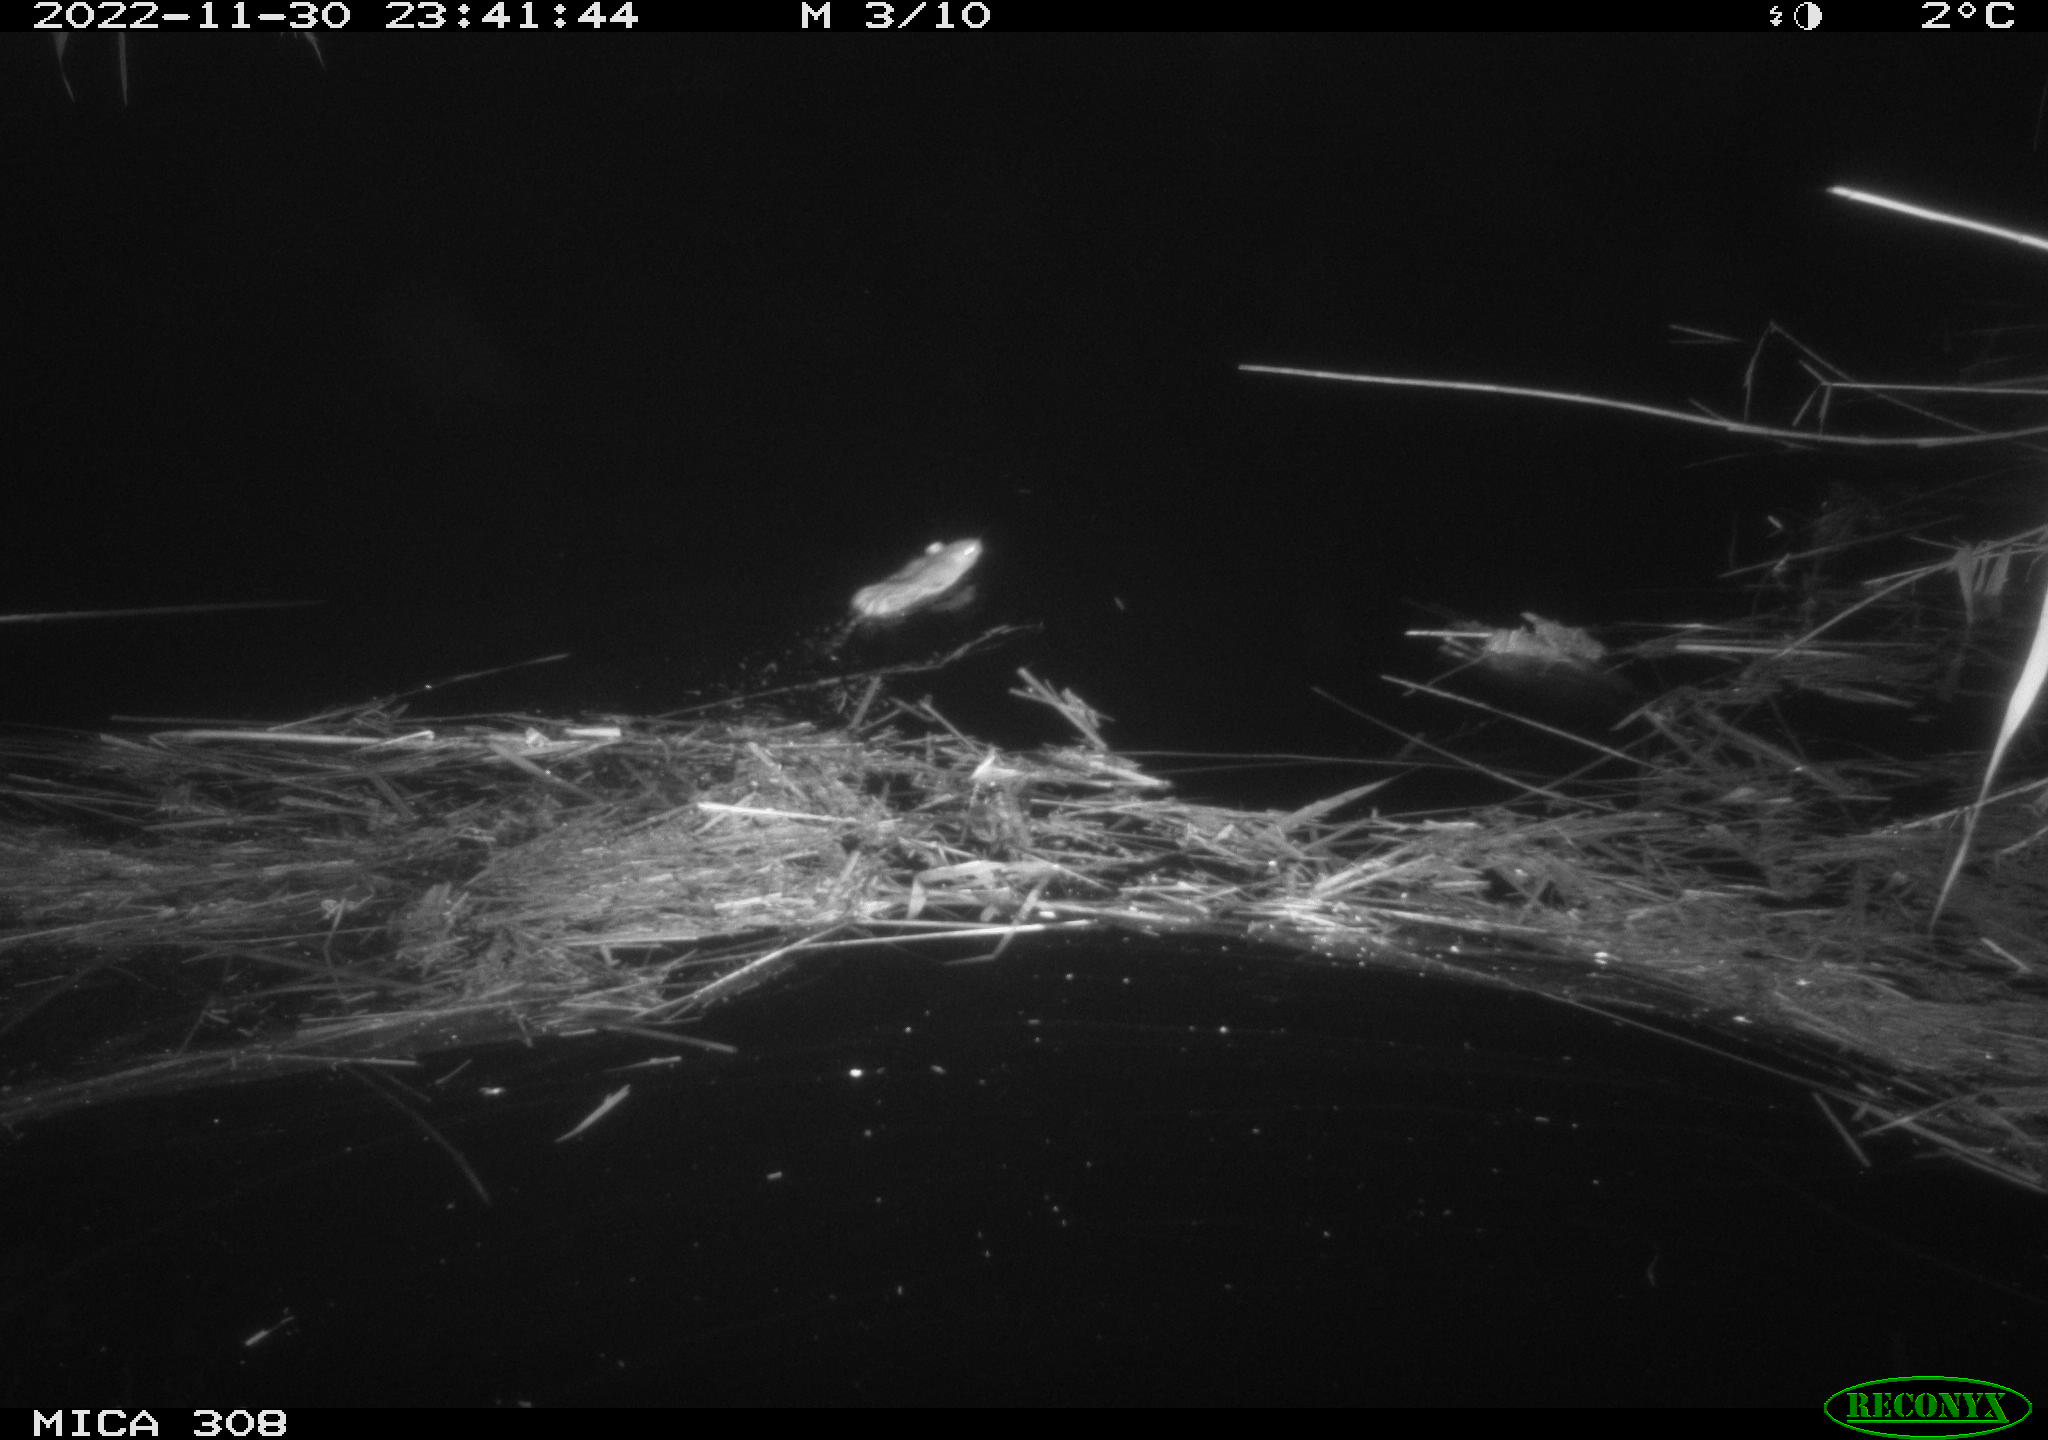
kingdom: Animalia
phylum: Chordata
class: Mammalia
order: Rodentia
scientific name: Rodentia
